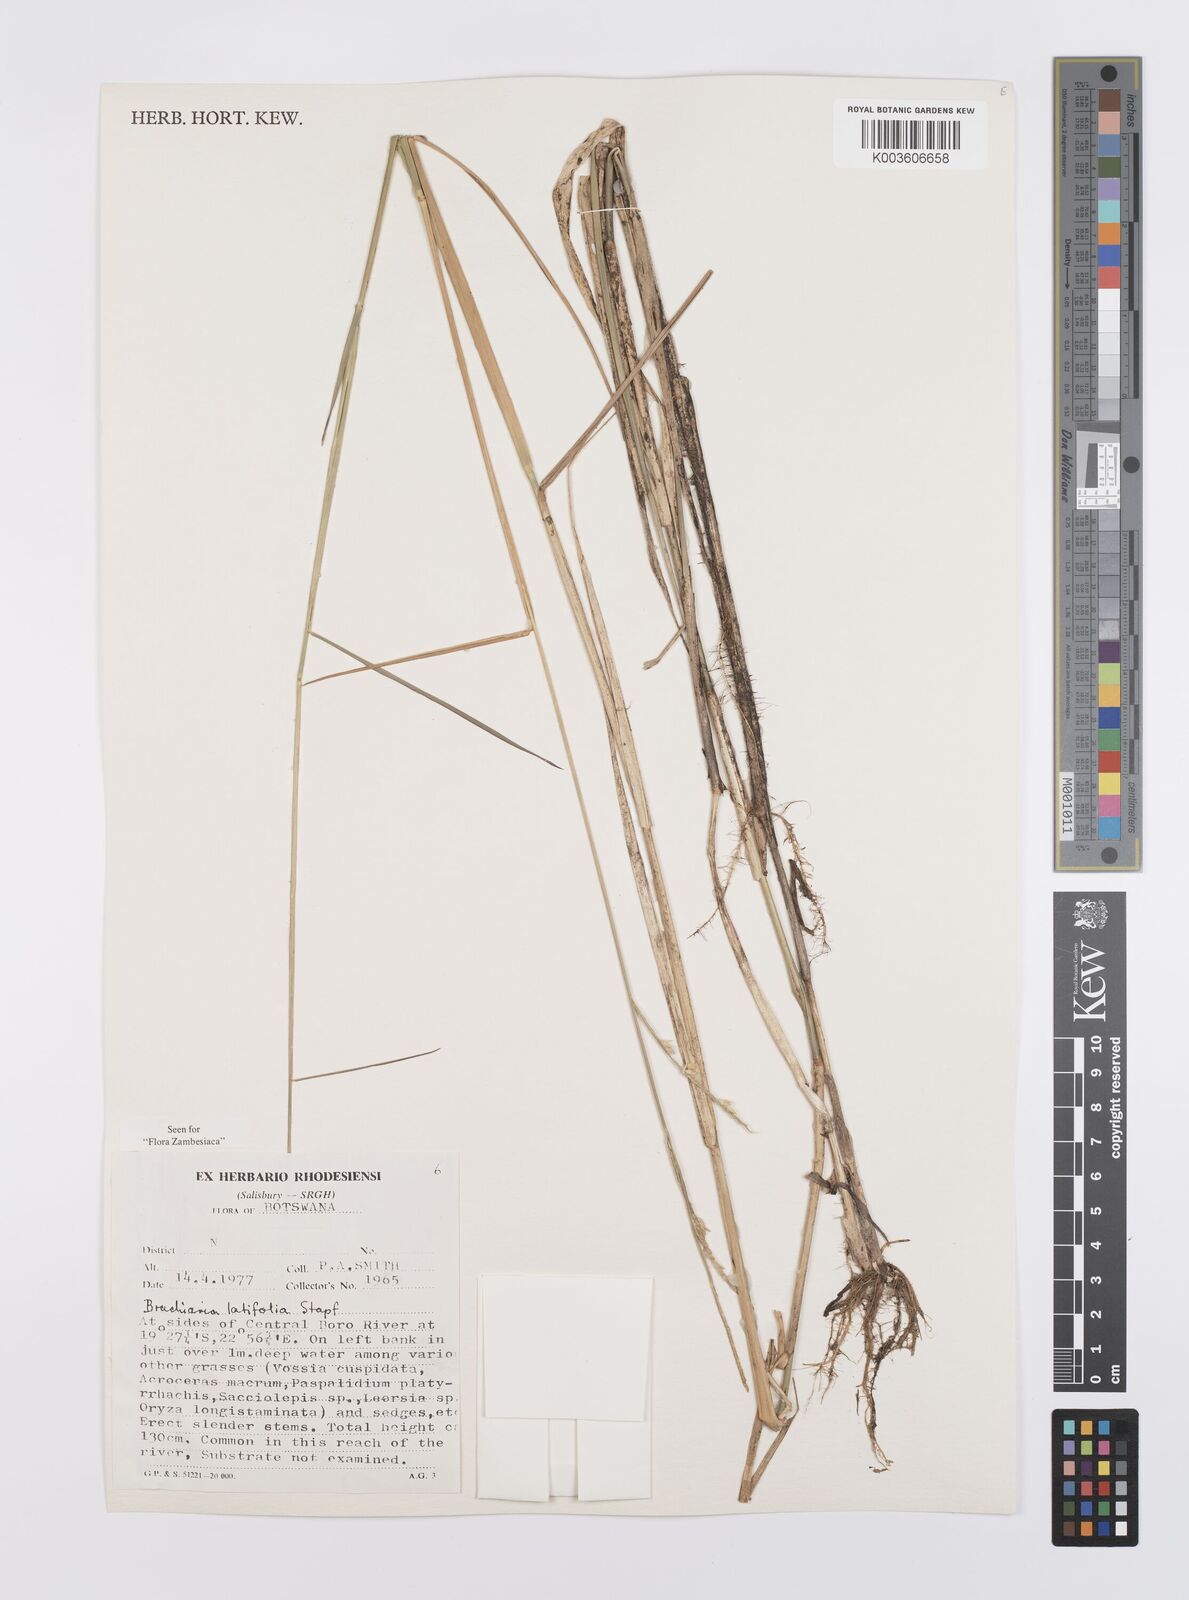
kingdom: Plantae
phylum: Tracheophyta
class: Liliopsida
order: Poales
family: Poaceae
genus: Urochloa
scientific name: Urochloa arrecta
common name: African signalgrass
